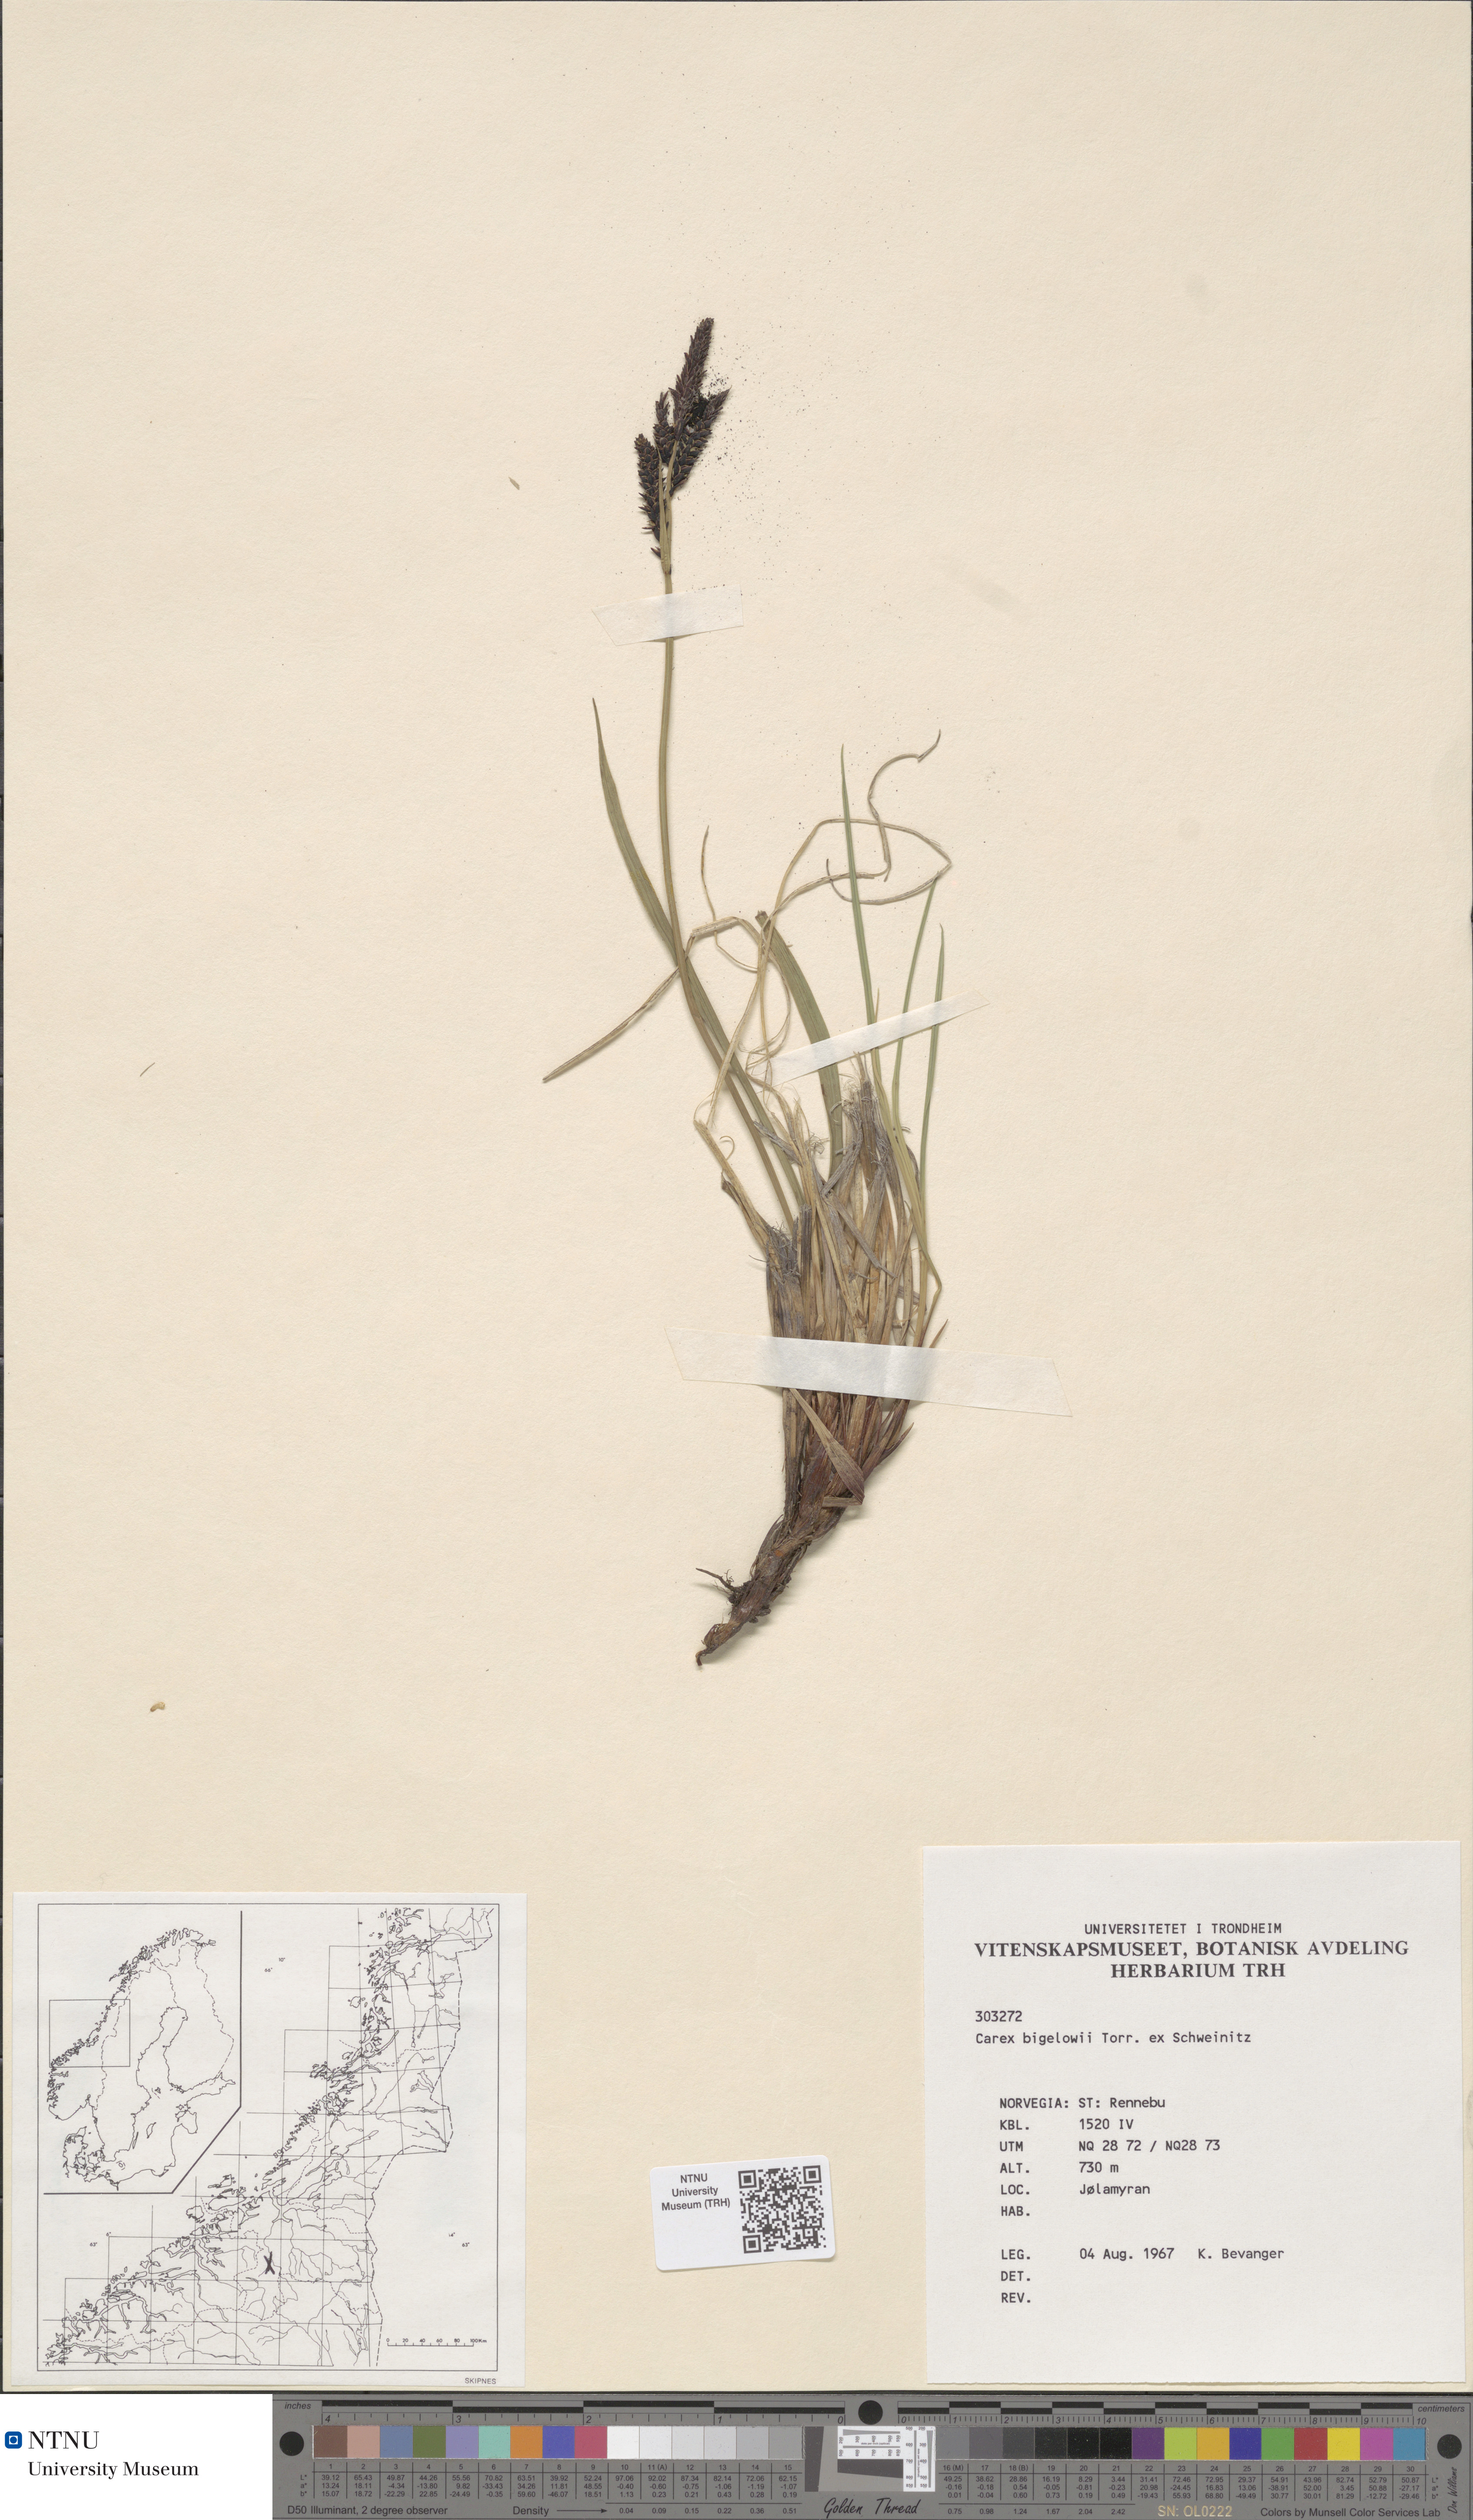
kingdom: Plantae
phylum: Tracheophyta
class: Liliopsida
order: Poales
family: Cyperaceae
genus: Carex
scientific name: Carex bigelowii
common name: Stiff sedge
